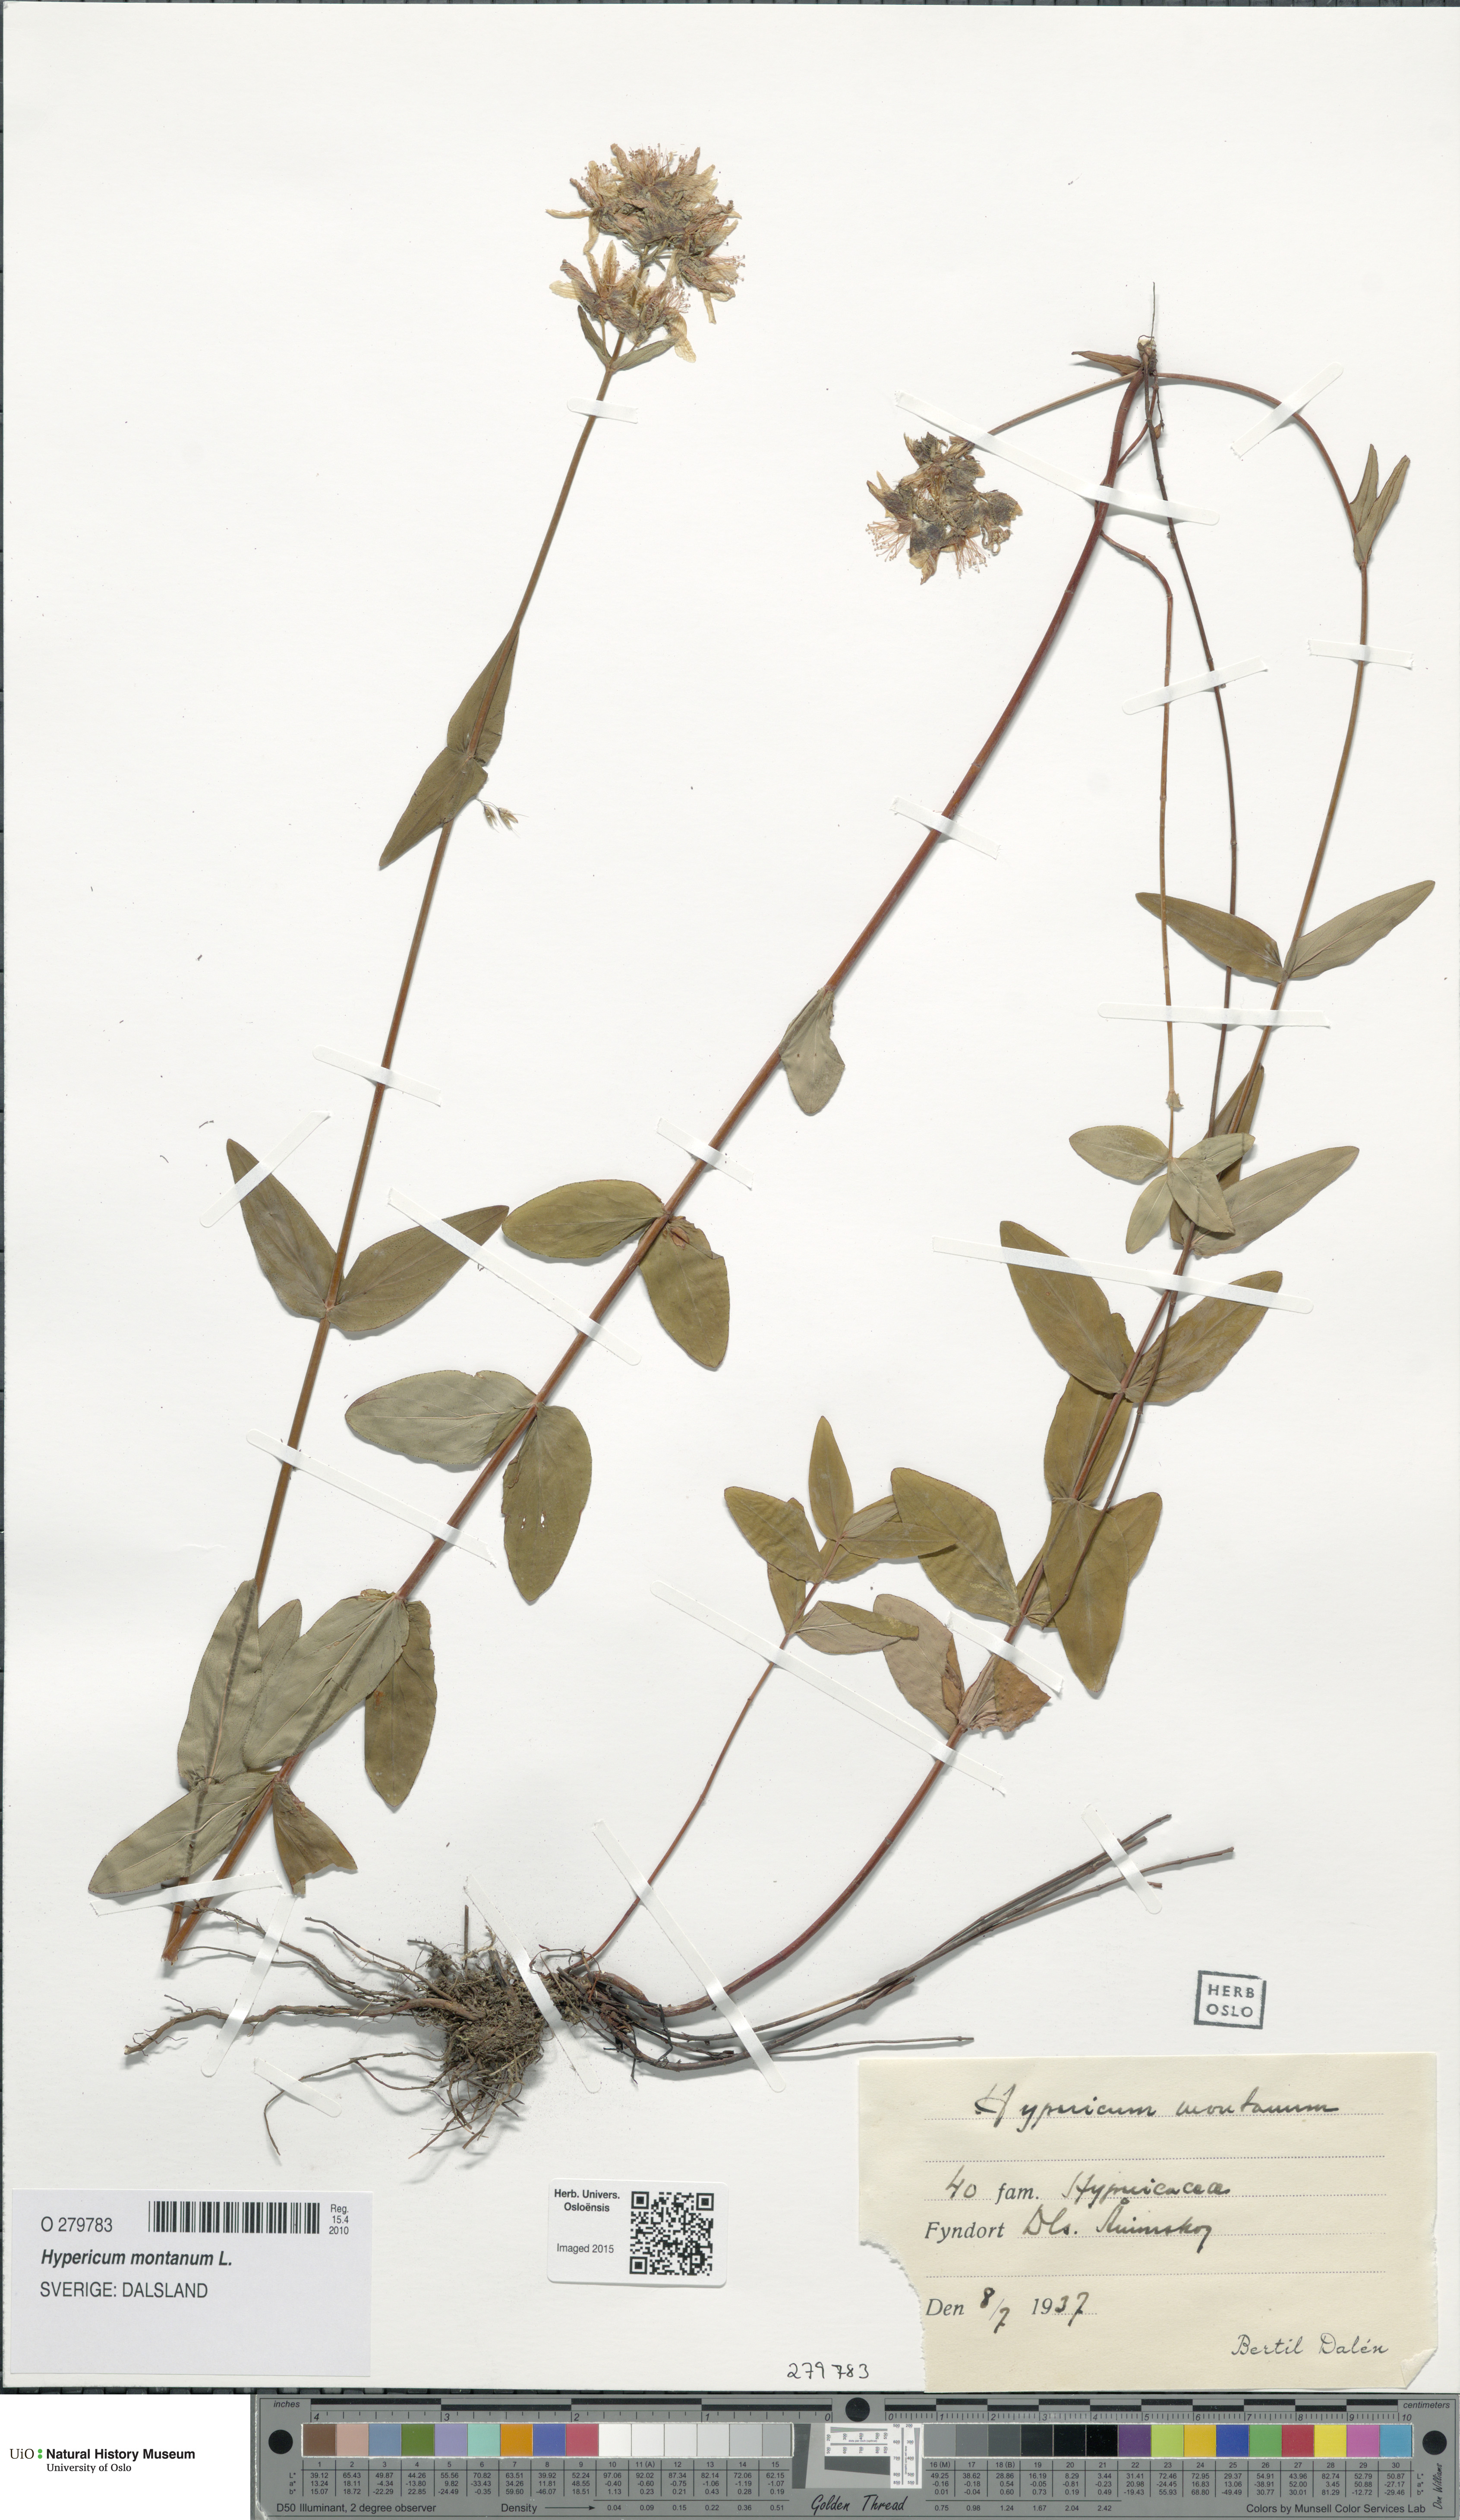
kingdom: Plantae
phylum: Tracheophyta
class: Magnoliopsida
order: Malpighiales
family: Hypericaceae
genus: Hypericum
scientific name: Hypericum montanum
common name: Pale st. john's-wort
